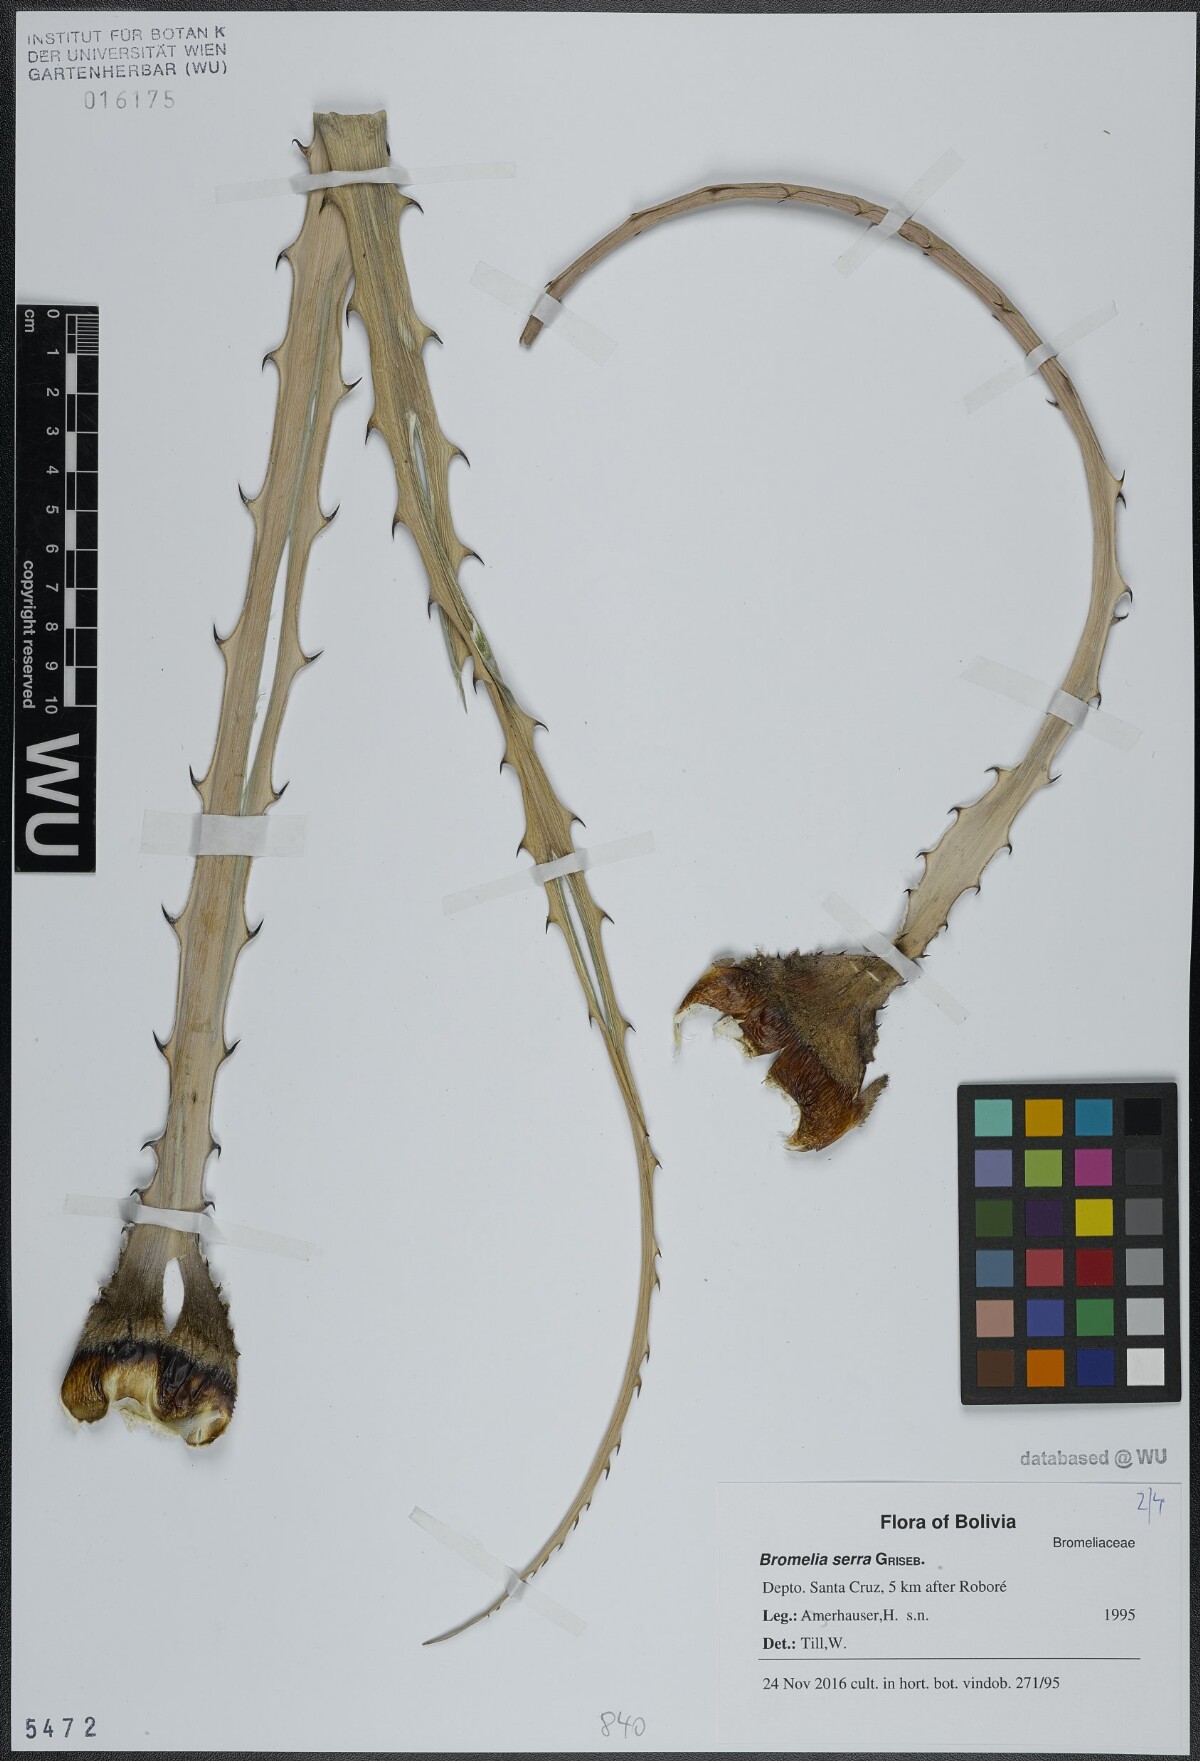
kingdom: Plantae
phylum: Tracheophyta
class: Liliopsida
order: Poales
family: Bromeliaceae
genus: Bromelia
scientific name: Bromelia serra
